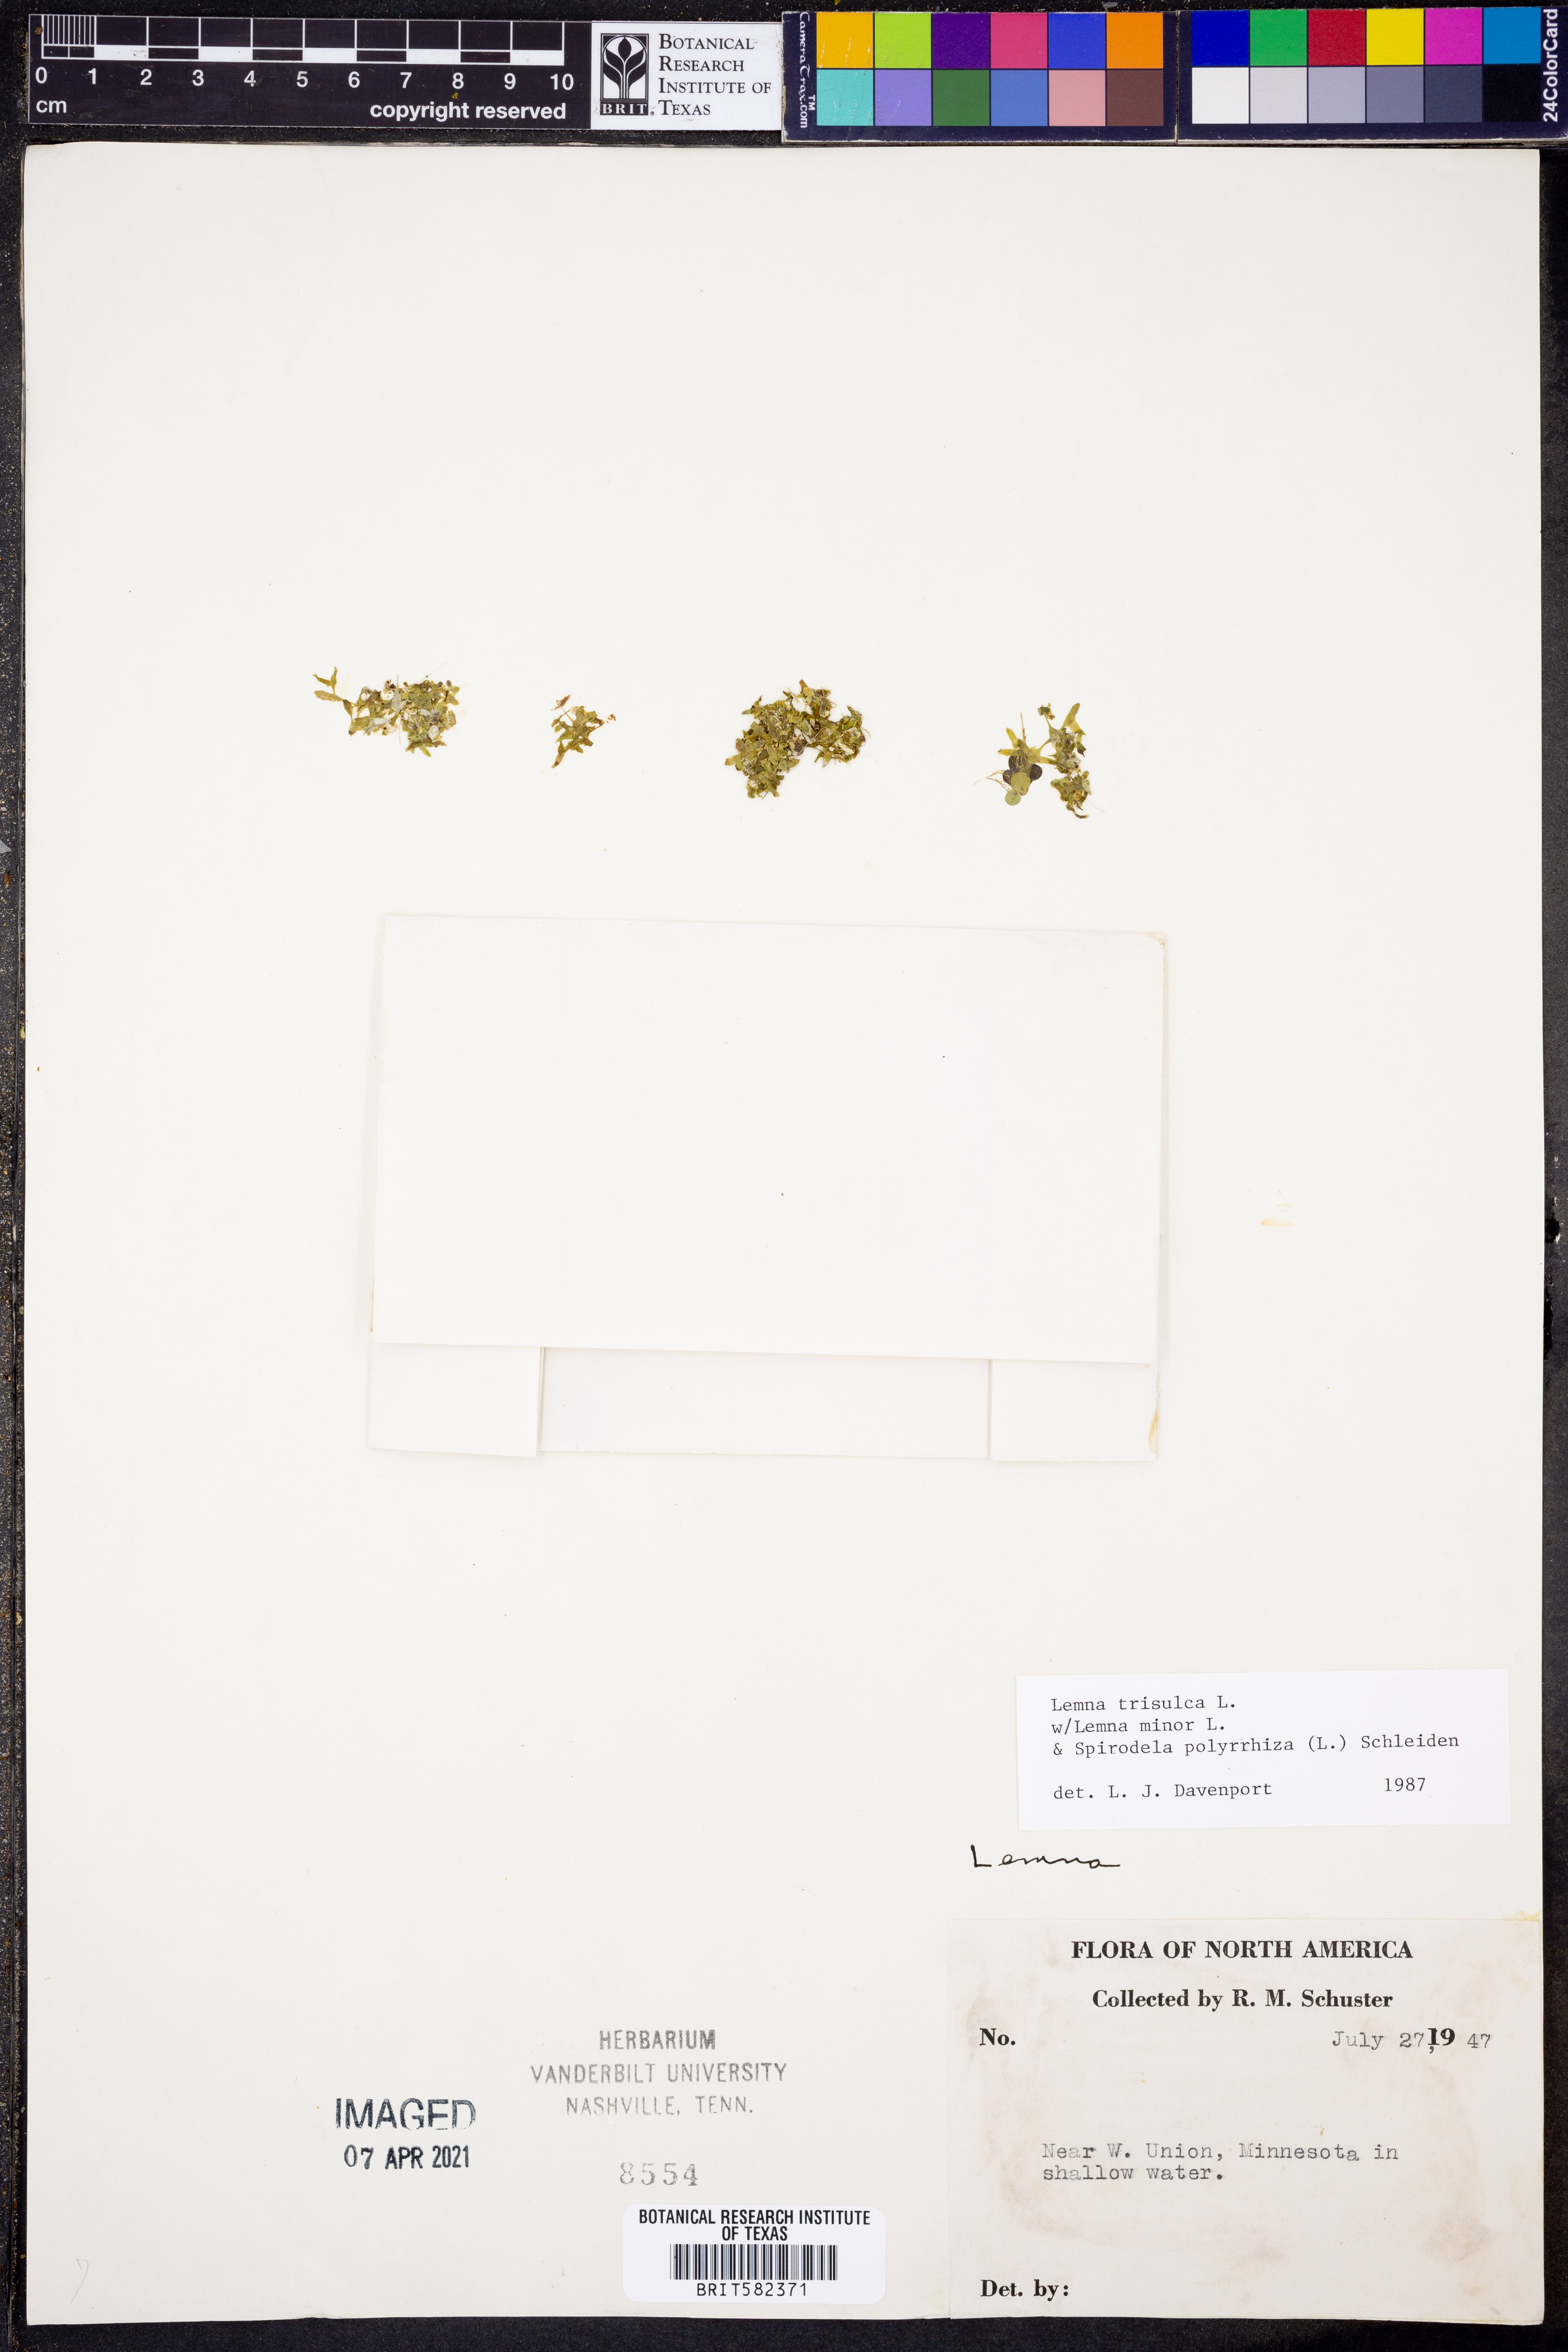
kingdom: Plantae
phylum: Tracheophyta
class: Liliopsida
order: Alismatales
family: Araceae
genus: Lemna
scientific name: Lemna trisulca
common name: Ivy-leaved duckweed
